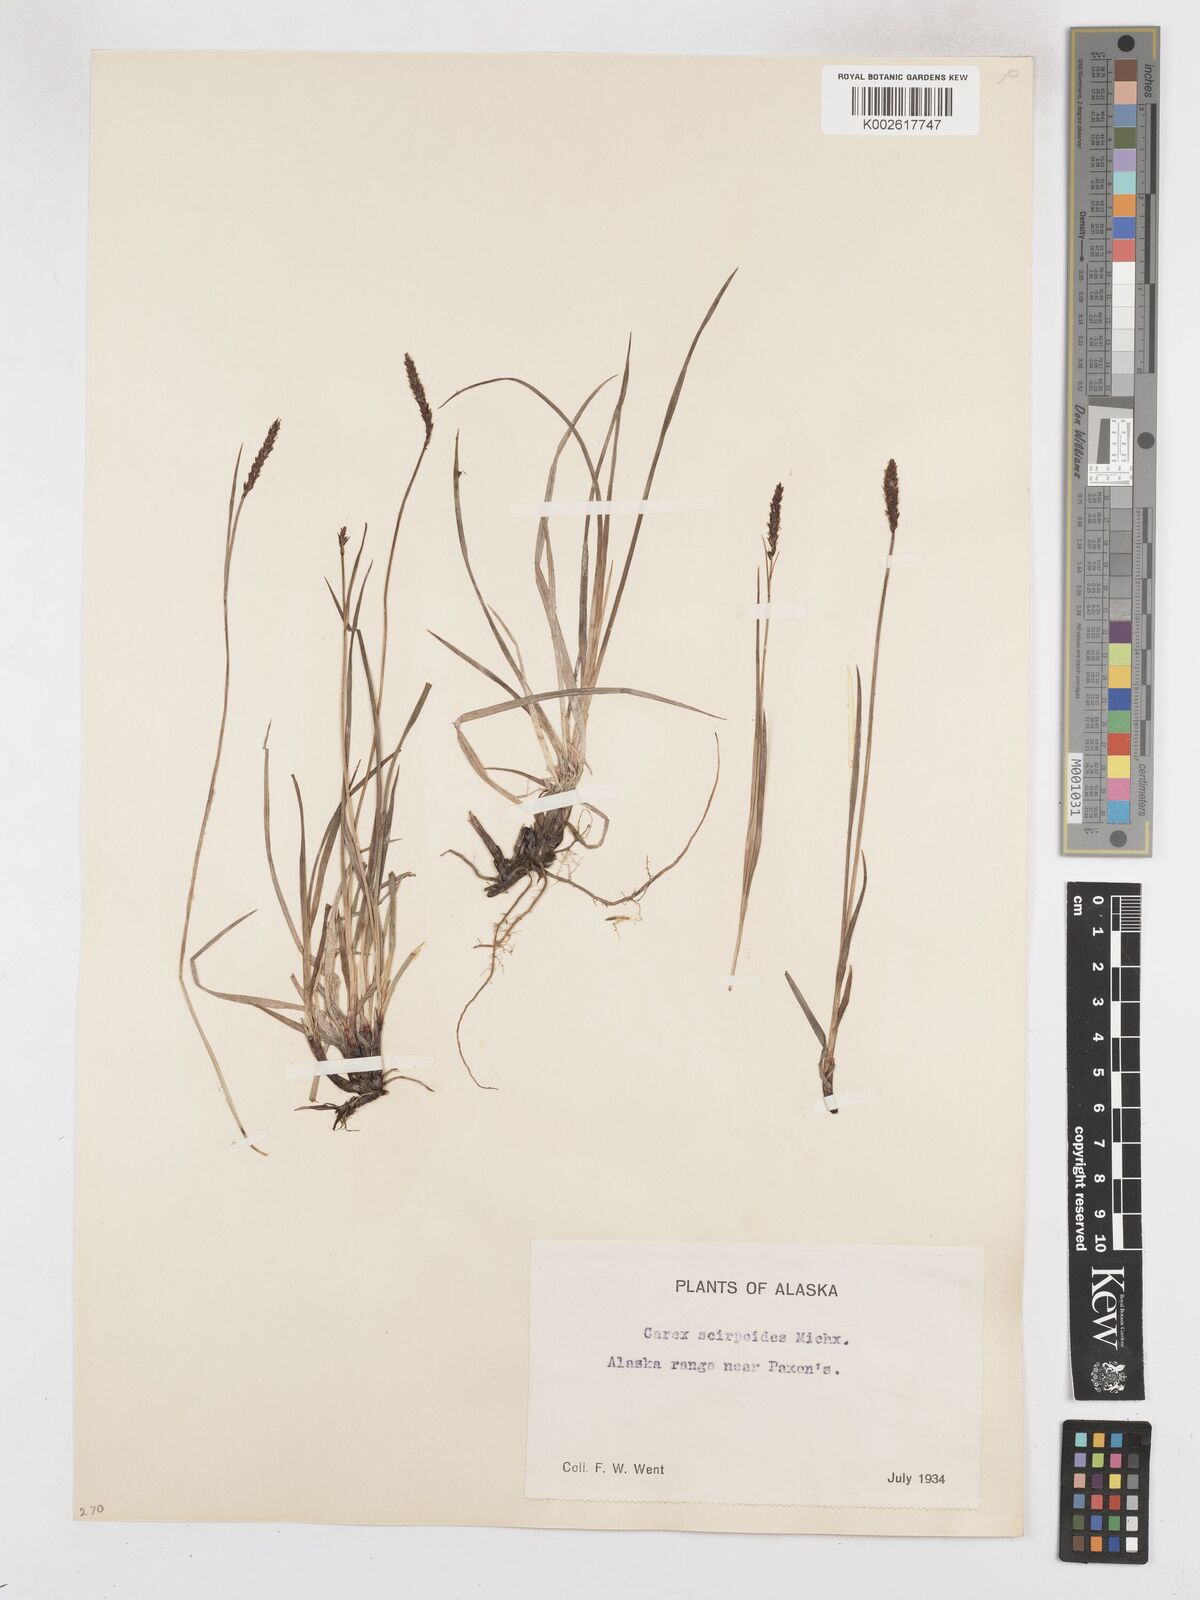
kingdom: Plantae
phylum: Tracheophyta
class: Liliopsida
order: Poales
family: Cyperaceae
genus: Carex
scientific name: Carex scirpoidea
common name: Canada single-spike sedge
